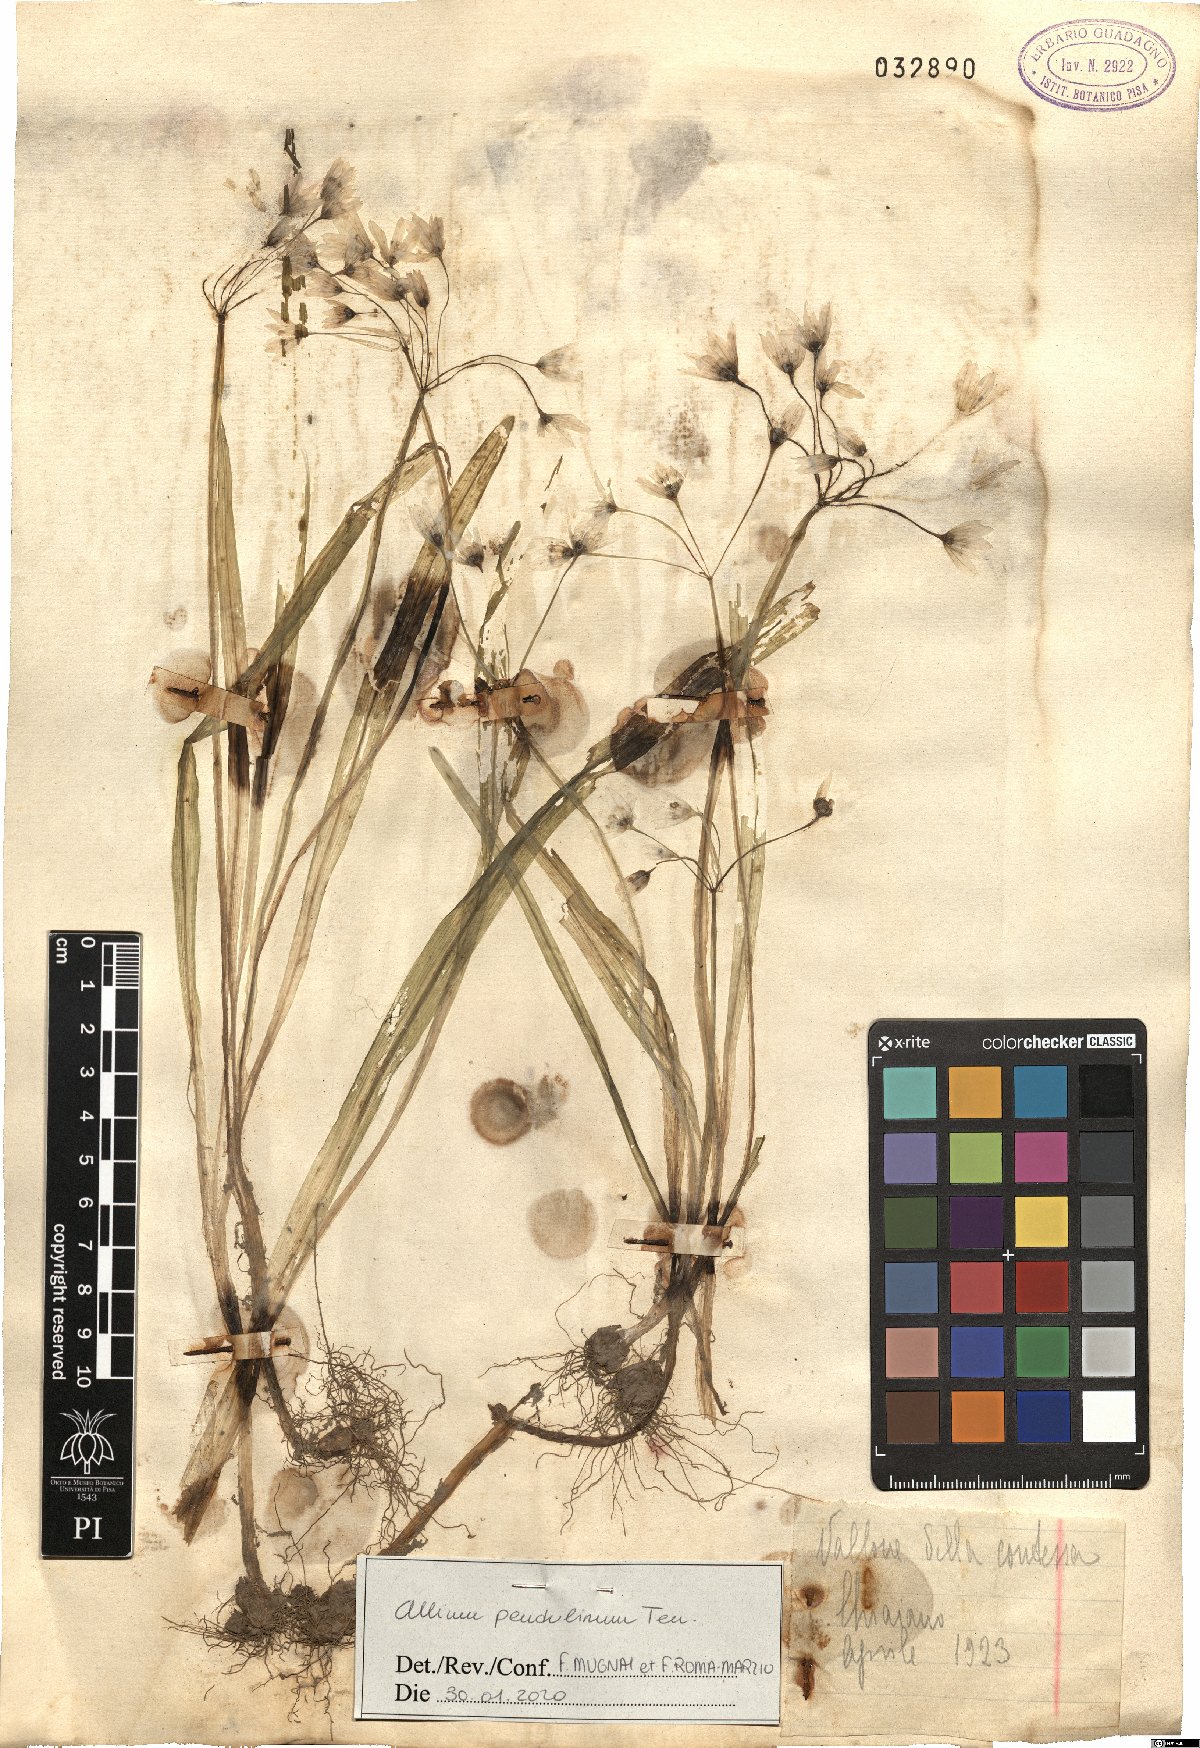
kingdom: Plantae
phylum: Tracheophyta
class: Liliopsida
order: Asparagales
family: Amaryllidaceae
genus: Allium
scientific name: Allium pendulinum
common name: Italian garlic
